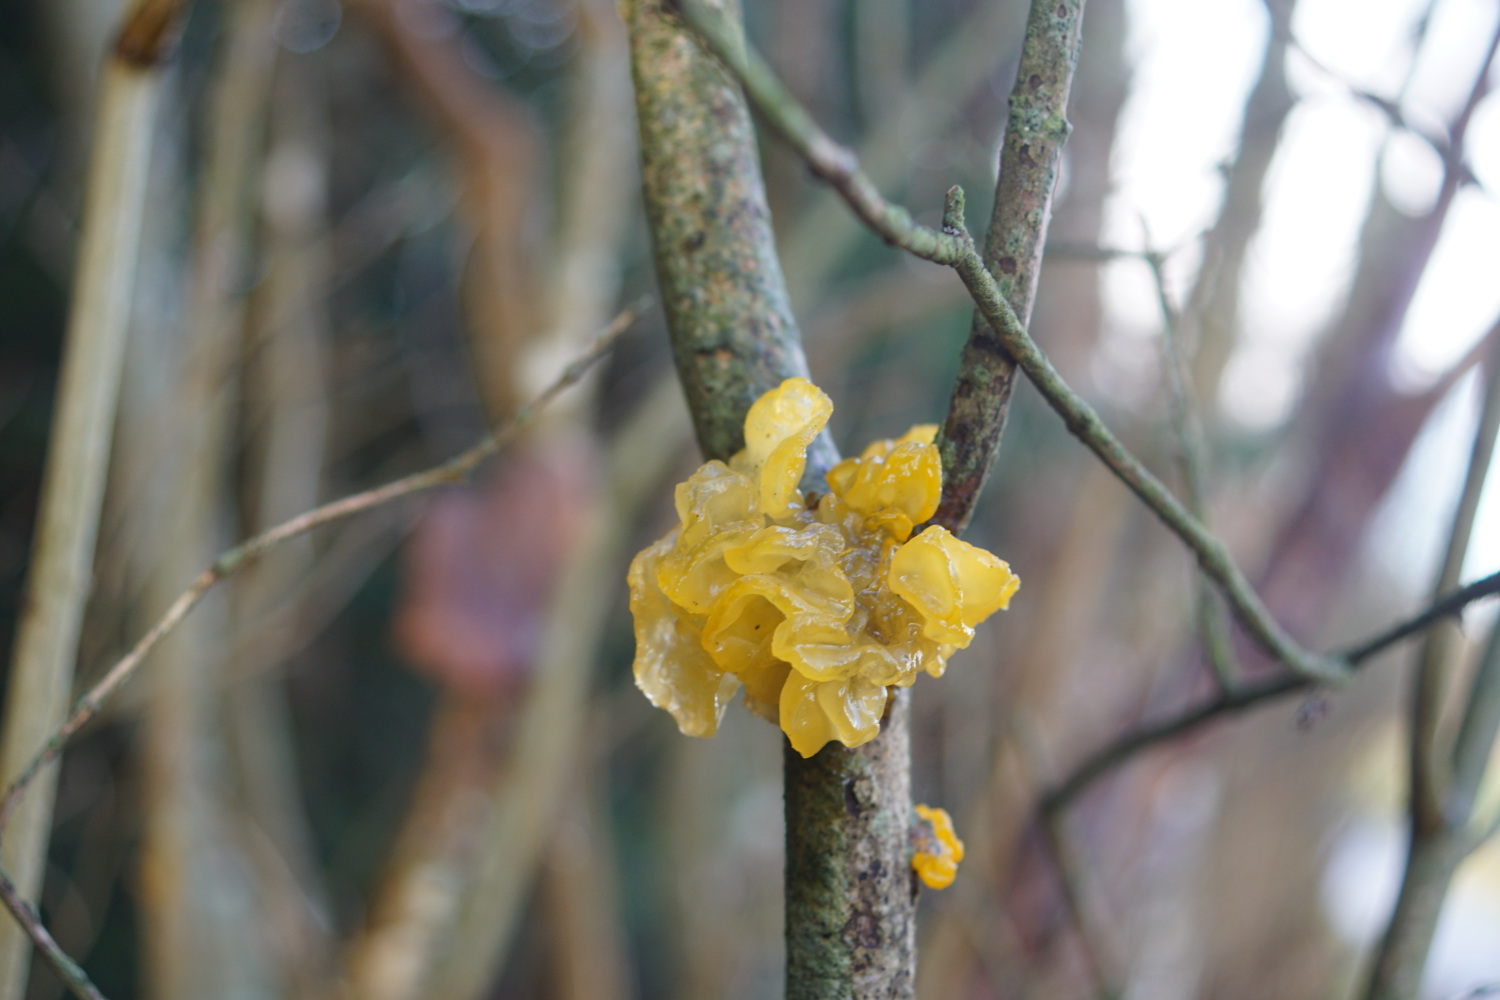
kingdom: Fungi
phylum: Basidiomycota
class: Tremellomycetes
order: Tremellales
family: Tremellaceae
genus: Tremella
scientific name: Tremella mesenterica
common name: gul bævresvamp
